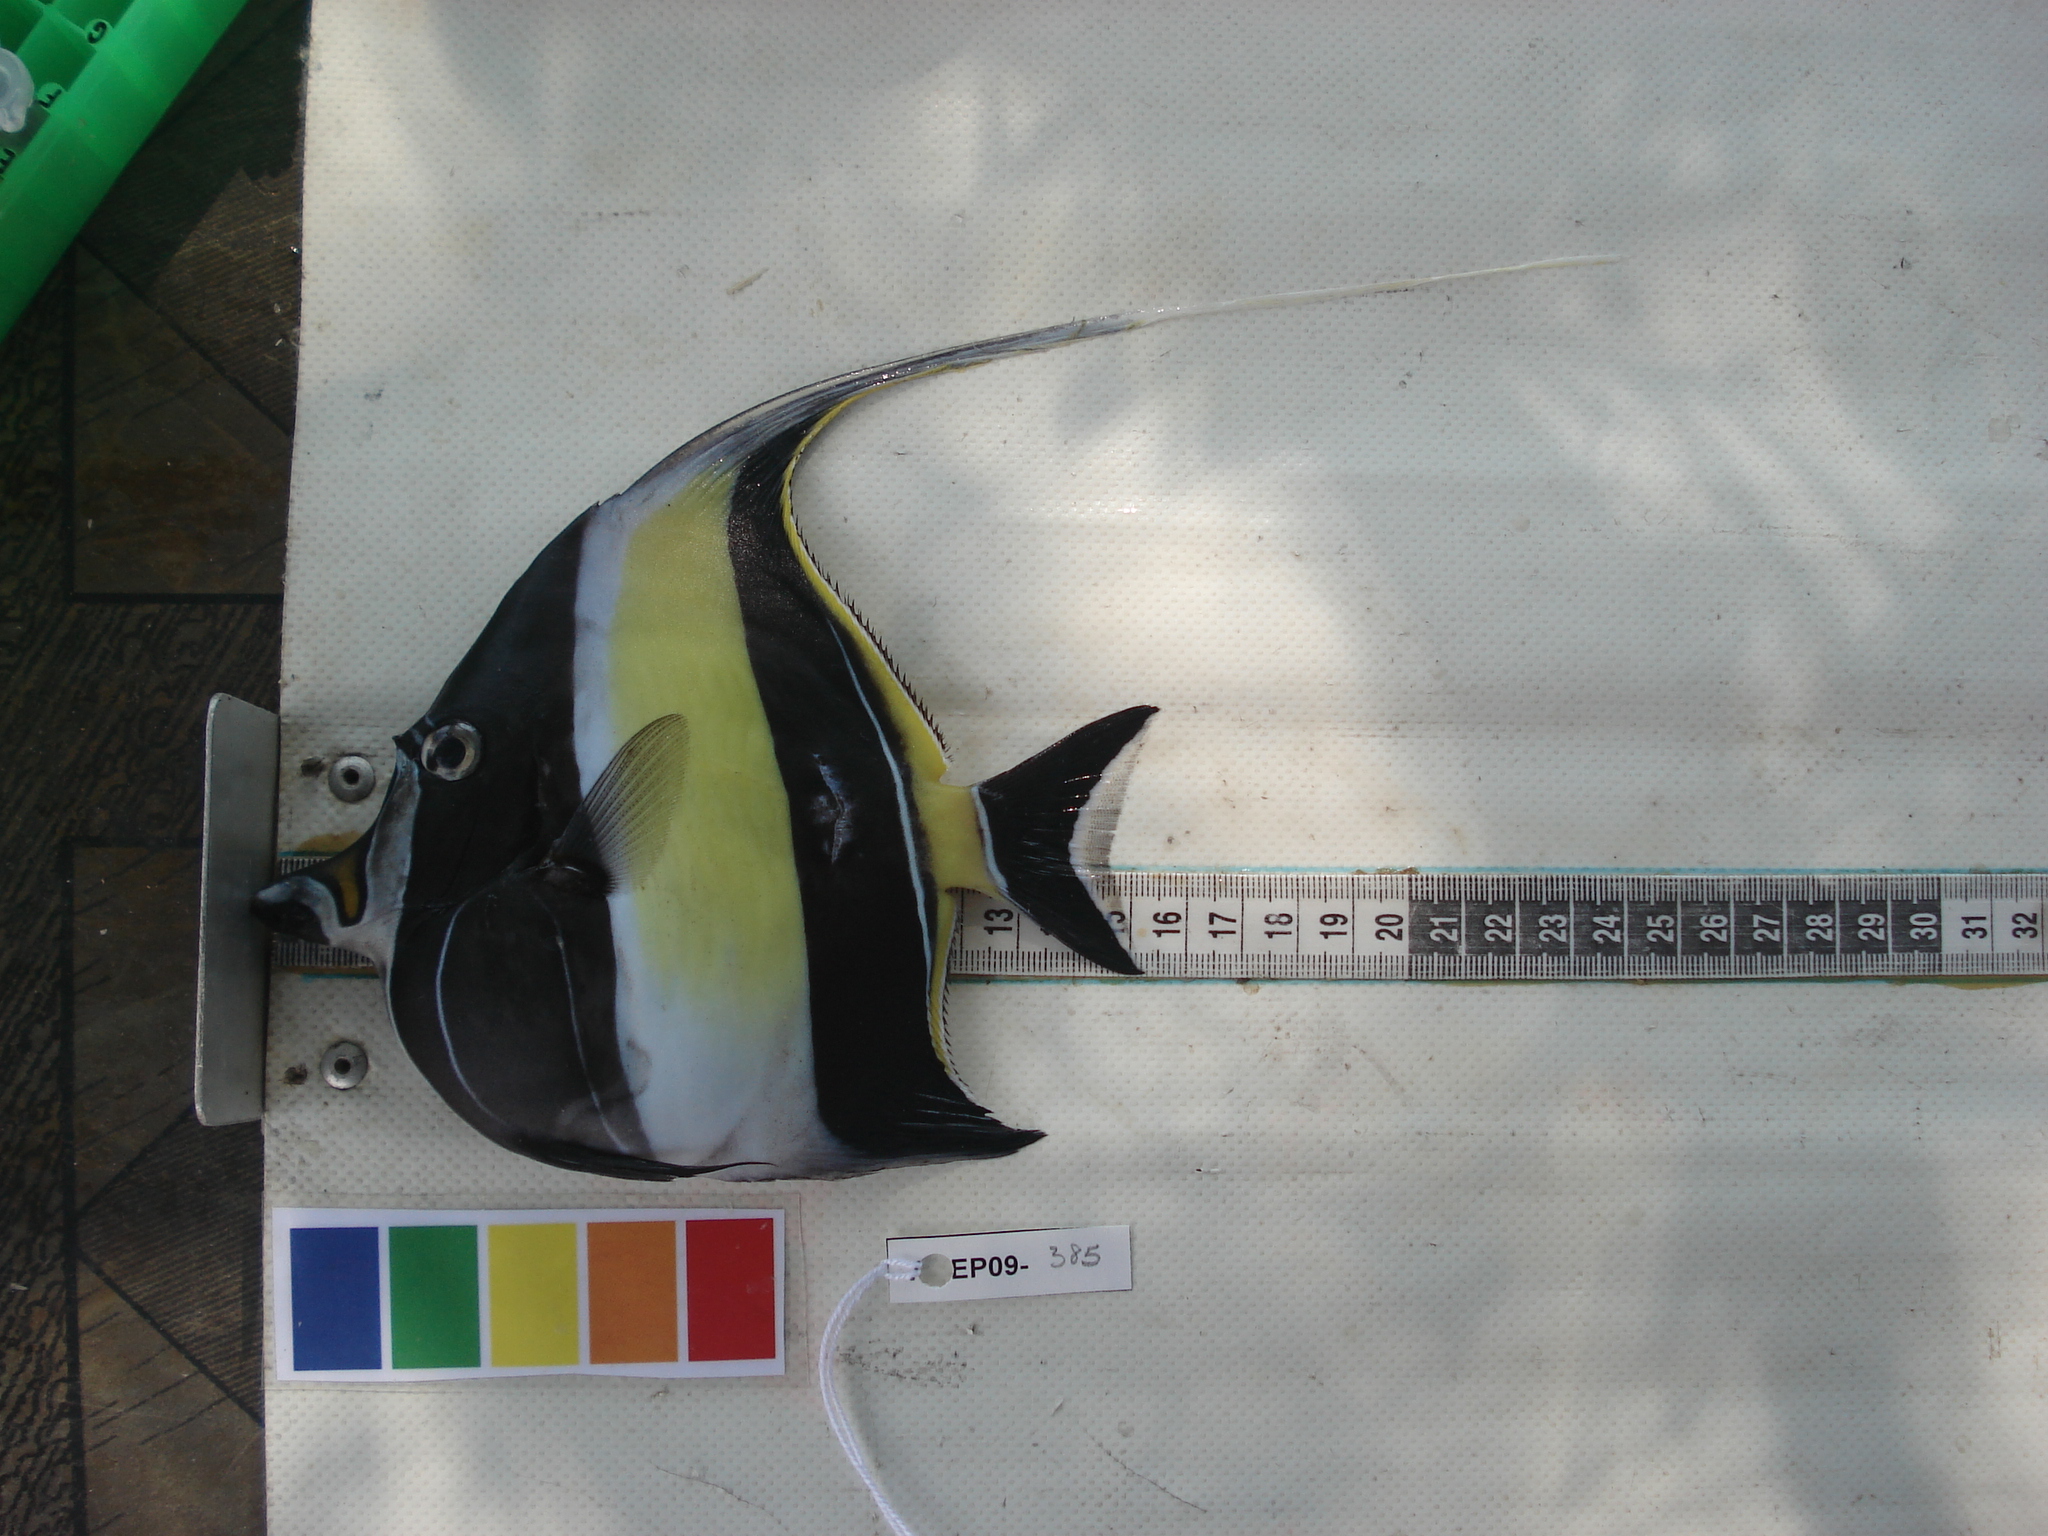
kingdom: Animalia
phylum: Chordata
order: Perciformes
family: Zanclidae
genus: Zanclus
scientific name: Zanclus cornutus
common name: Moorish idol
